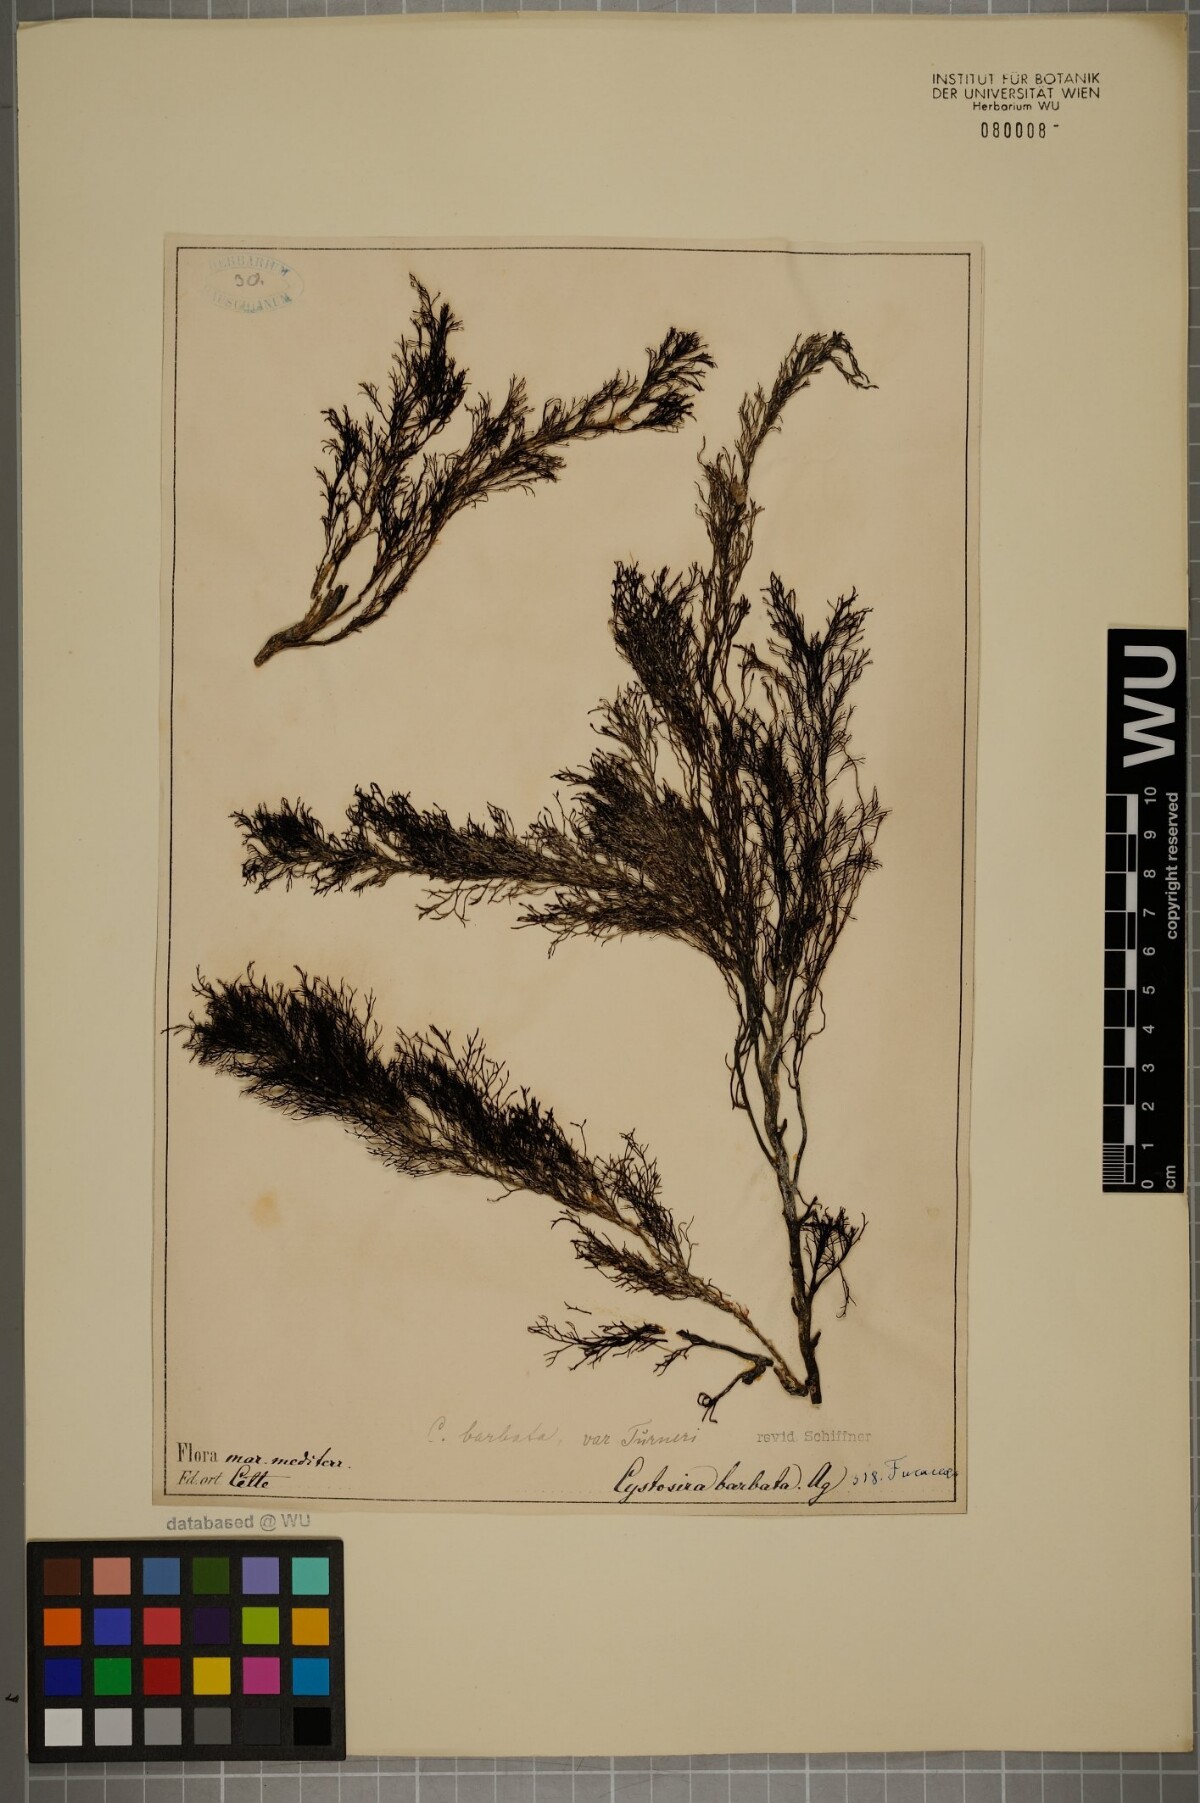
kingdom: Chromista
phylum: Ochrophyta
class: Phaeophyceae
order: Fucales
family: Sargassaceae
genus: Cystoseira
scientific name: Cystoseira Gongolaria barbata
